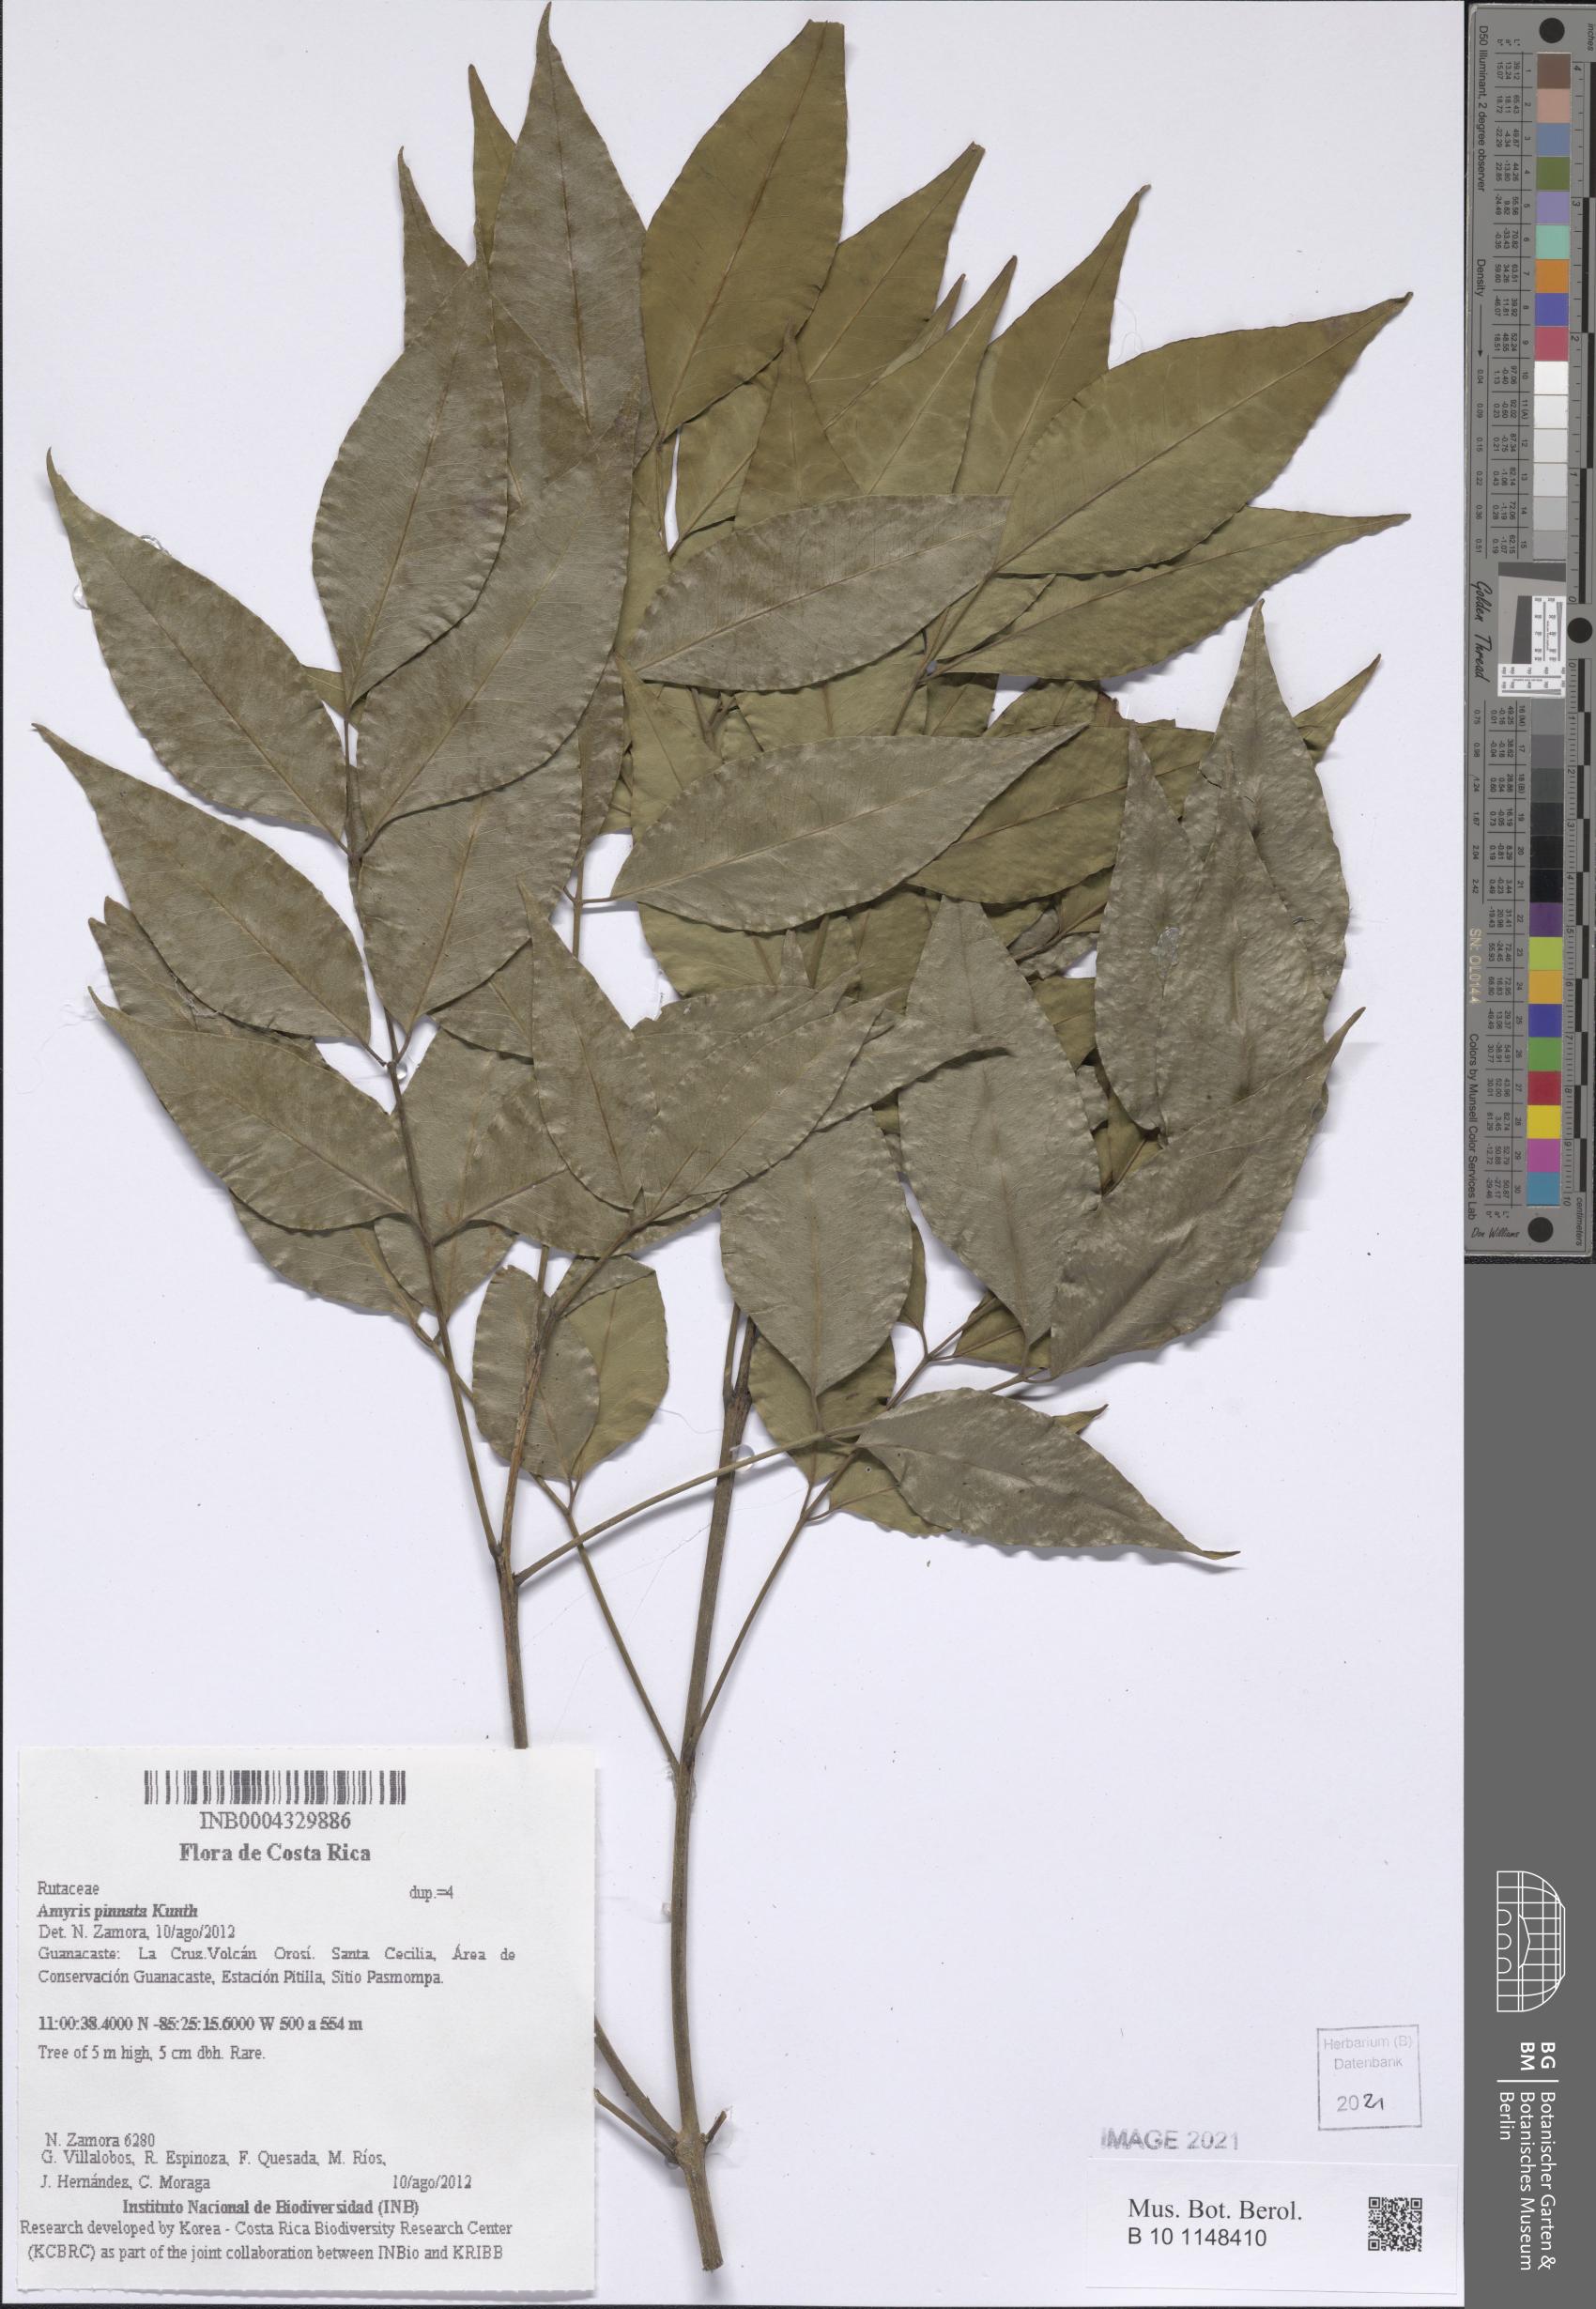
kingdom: Plantae
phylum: Tracheophyta
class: Magnoliopsida
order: Sapindales
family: Rutaceae
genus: Amyris
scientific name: Amyris pinnata
